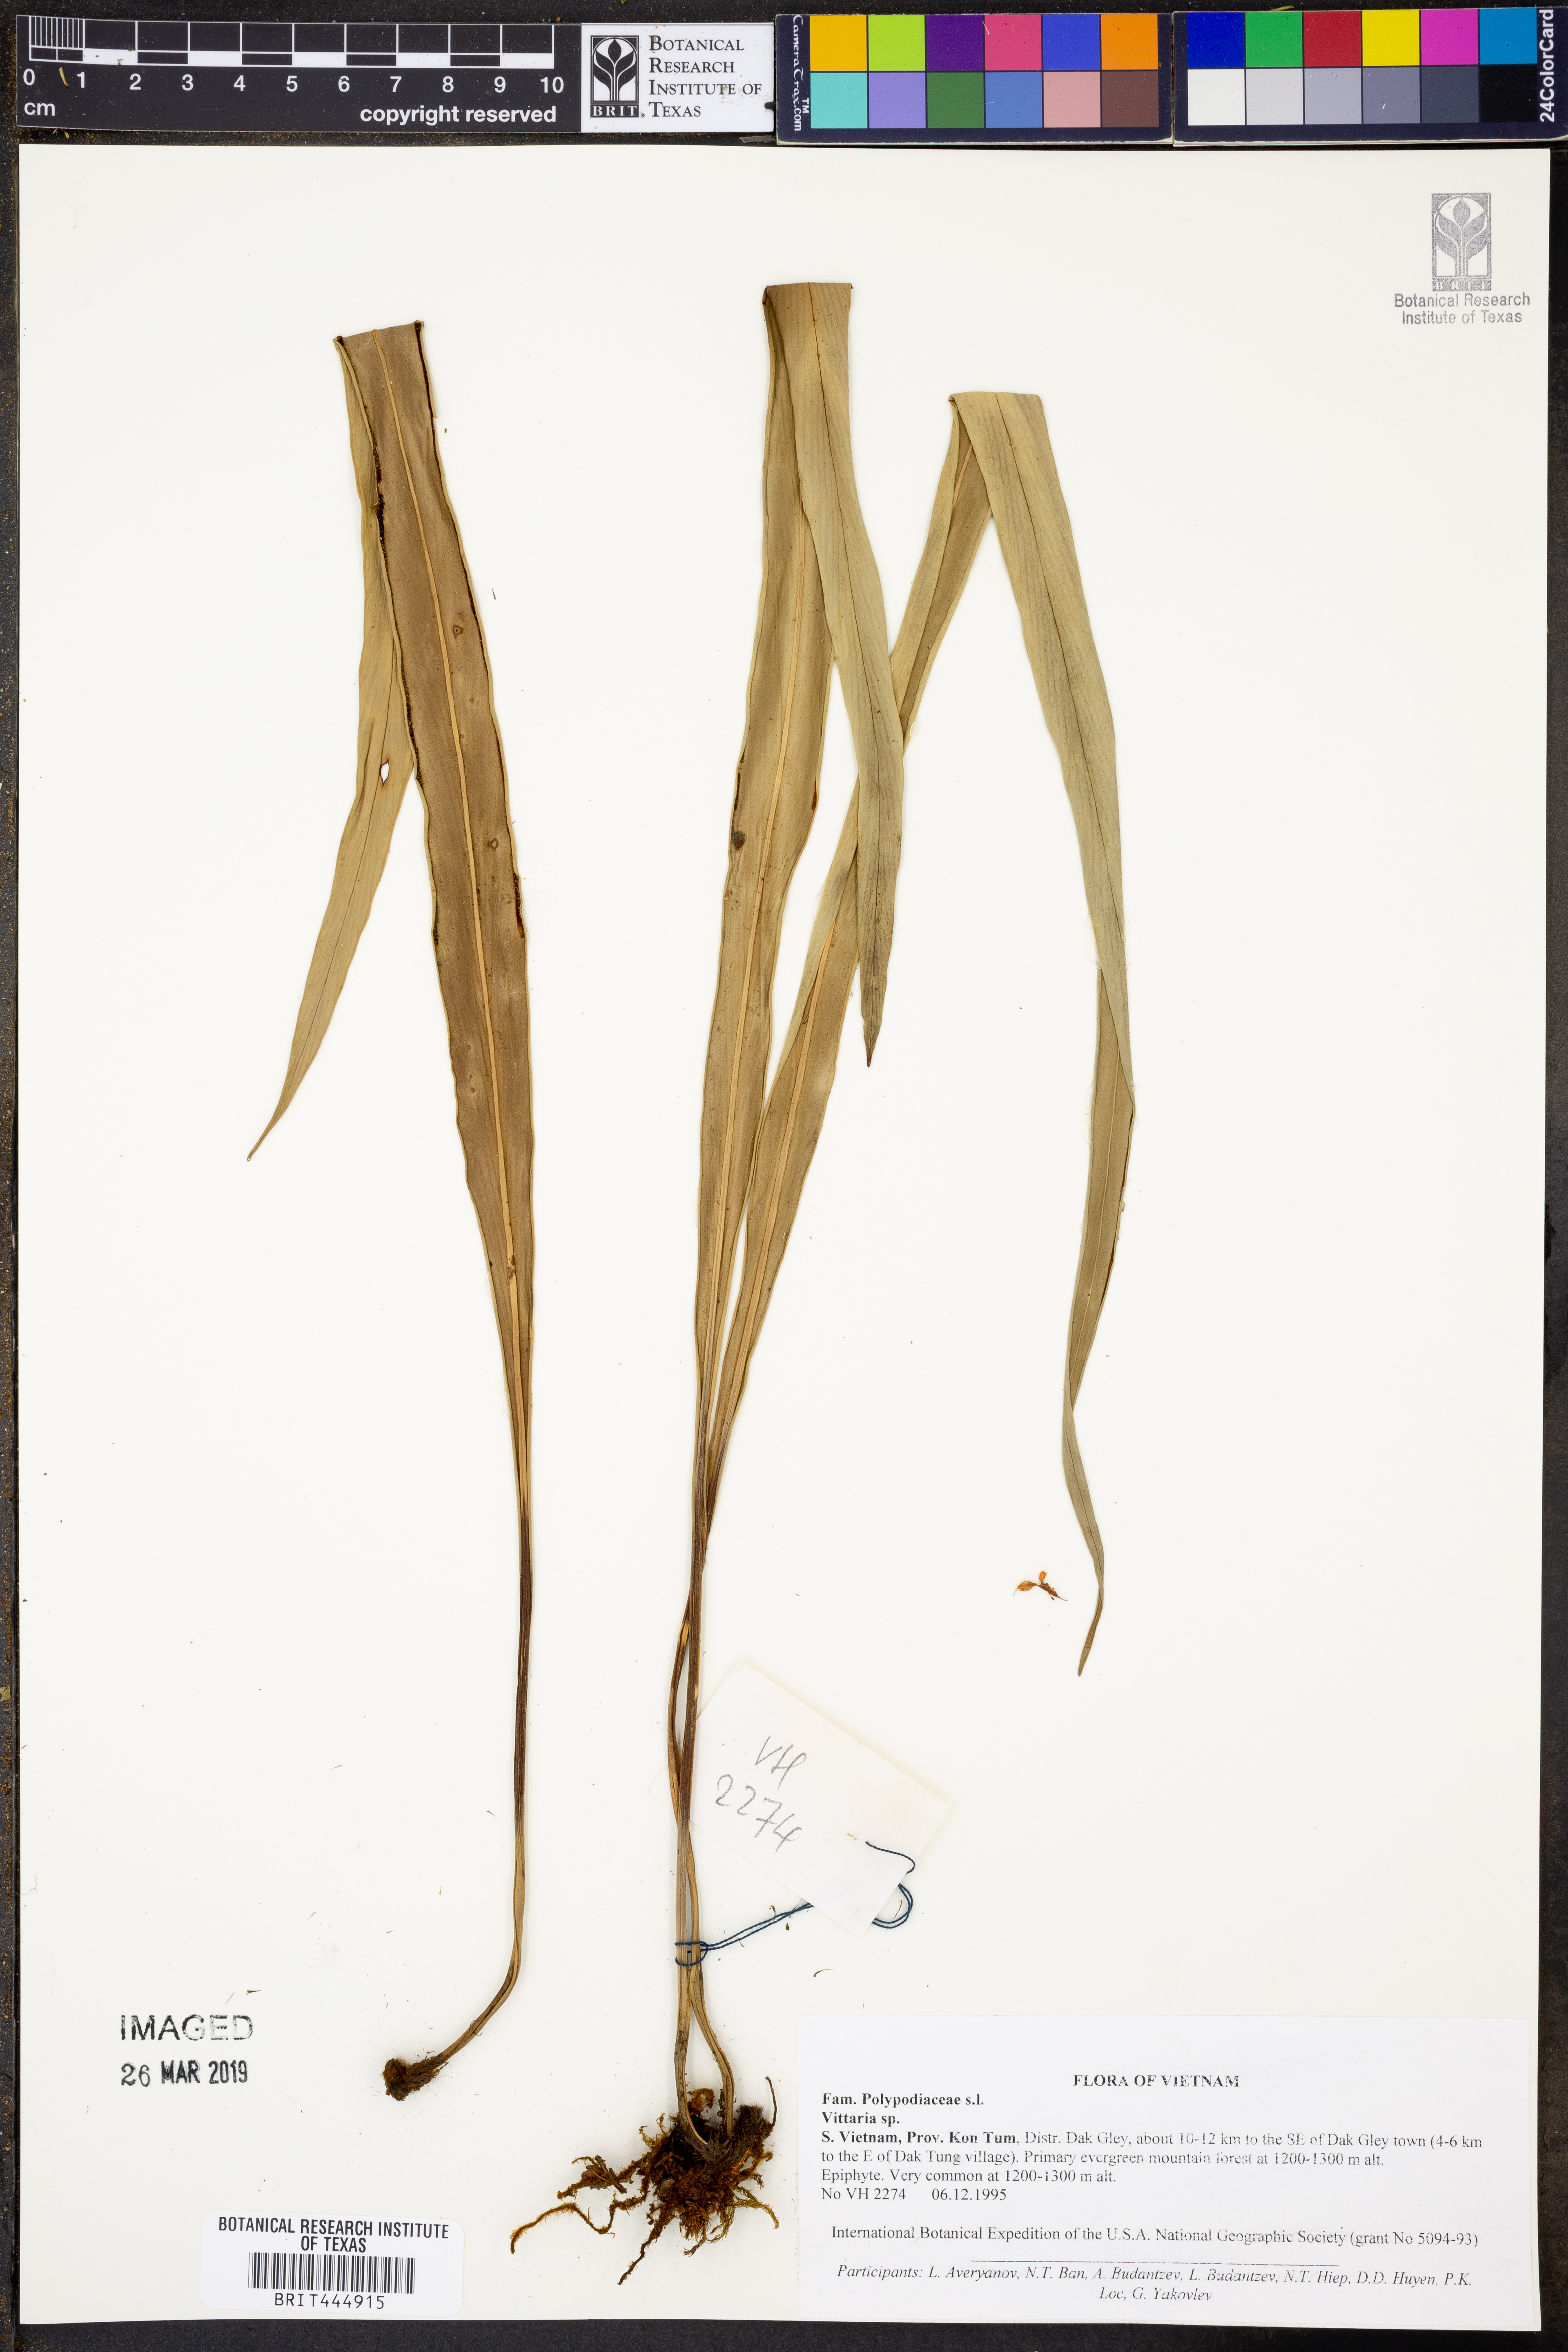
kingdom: Plantae
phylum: Tracheophyta
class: Polypodiopsida
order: Polypodiales
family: Pteridaceae
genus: Vittaria
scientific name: Vittaria
